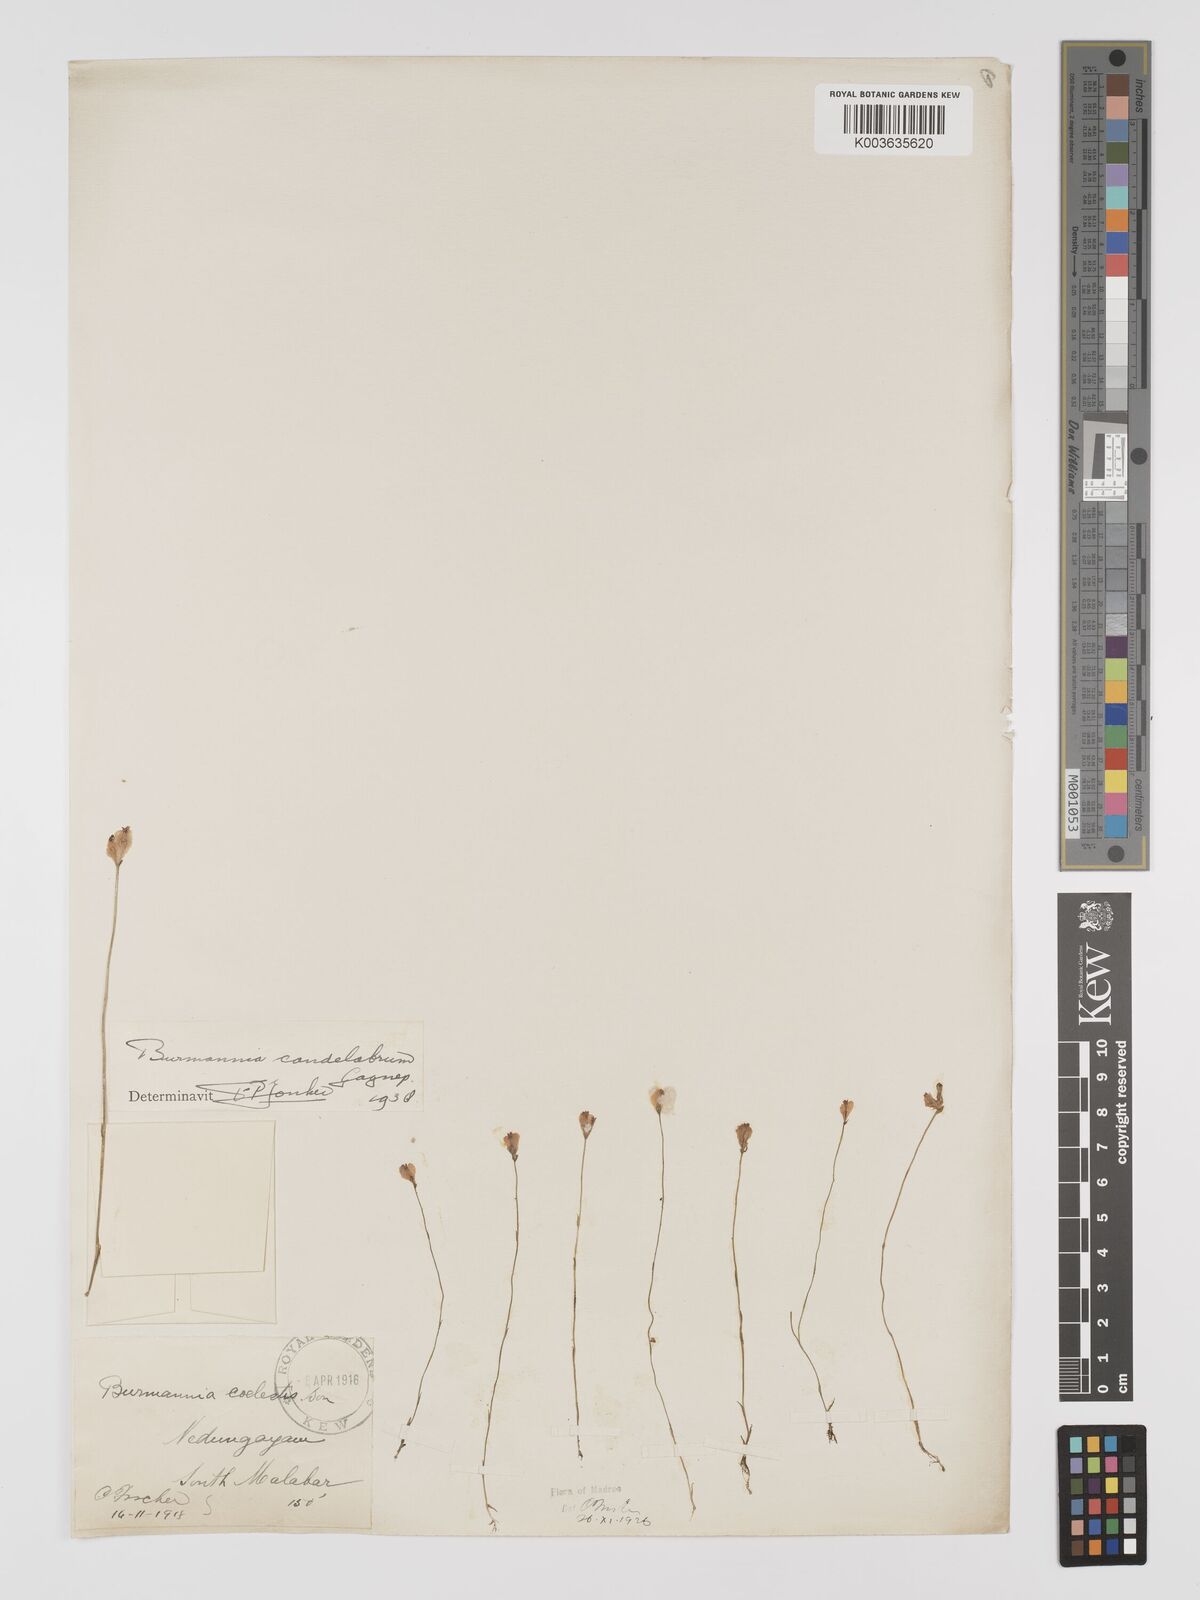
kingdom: Plantae
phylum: Tracheophyta
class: Liliopsida
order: Dioscoreales
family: Burmanniaceae
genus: Burmannia
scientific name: Burmannia candelabrum
